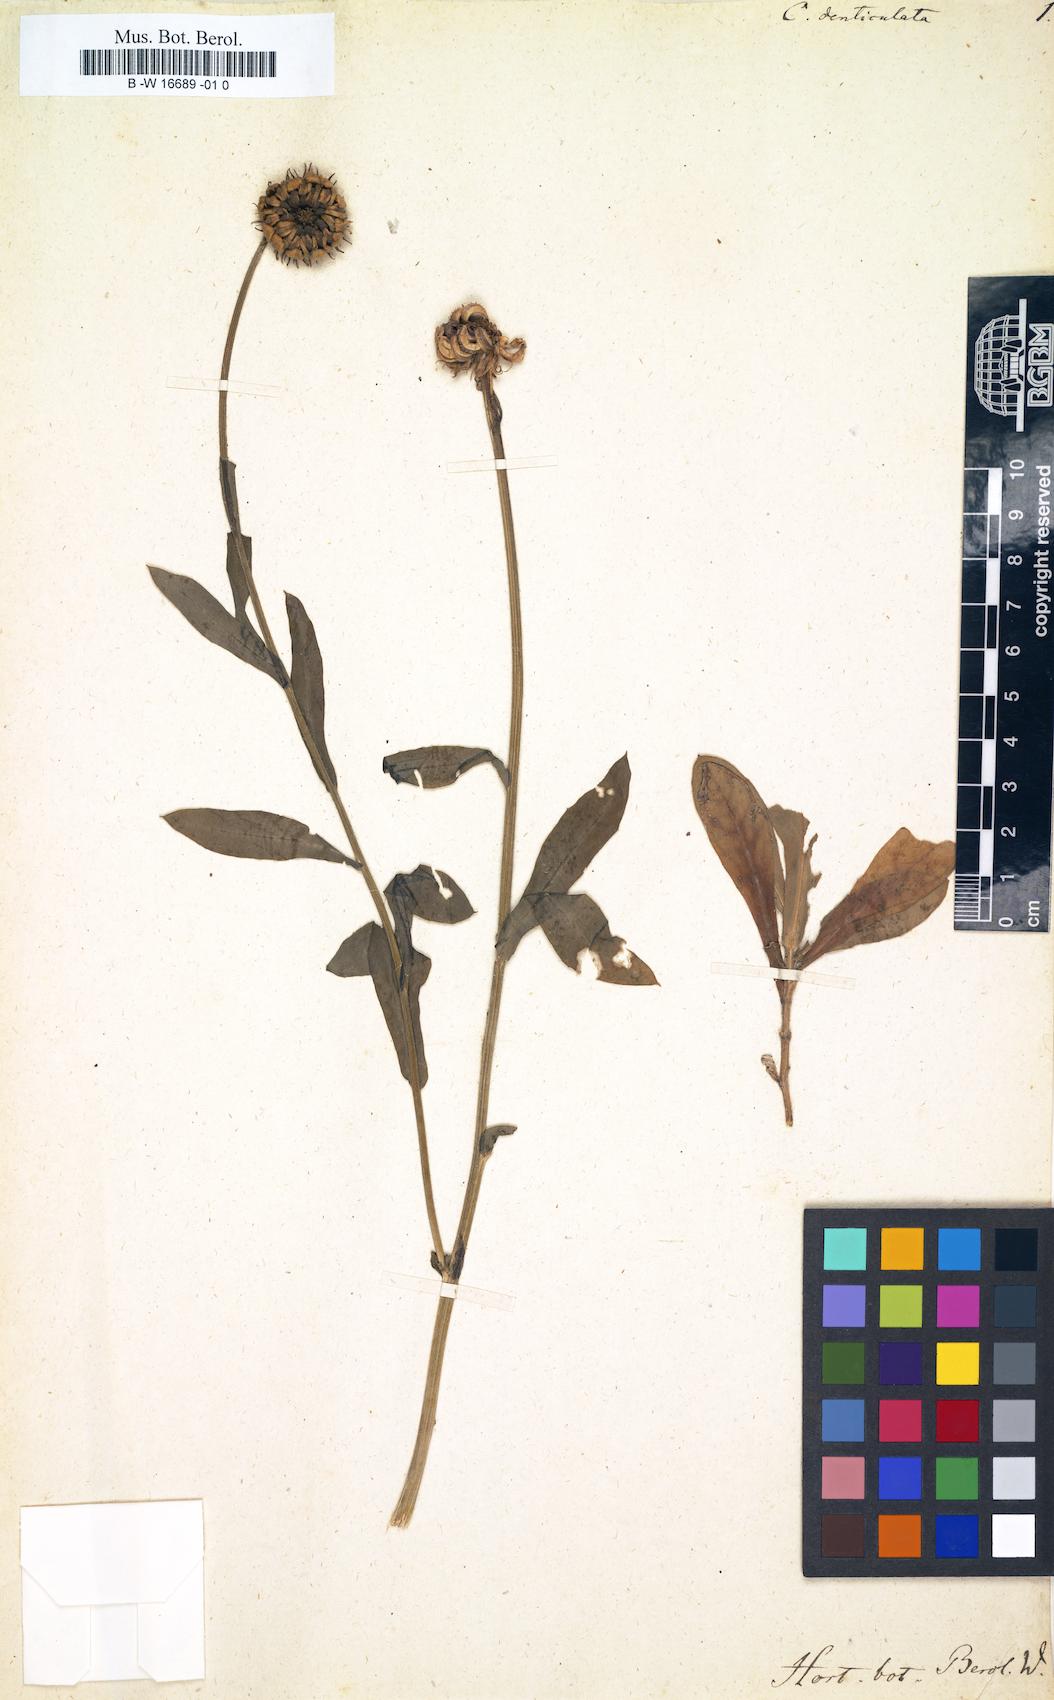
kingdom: Plantae
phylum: Tracheophyta
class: Magnoliopsida
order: Asterales
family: Asteraceae
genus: Calendula
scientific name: Calendula denticulata
